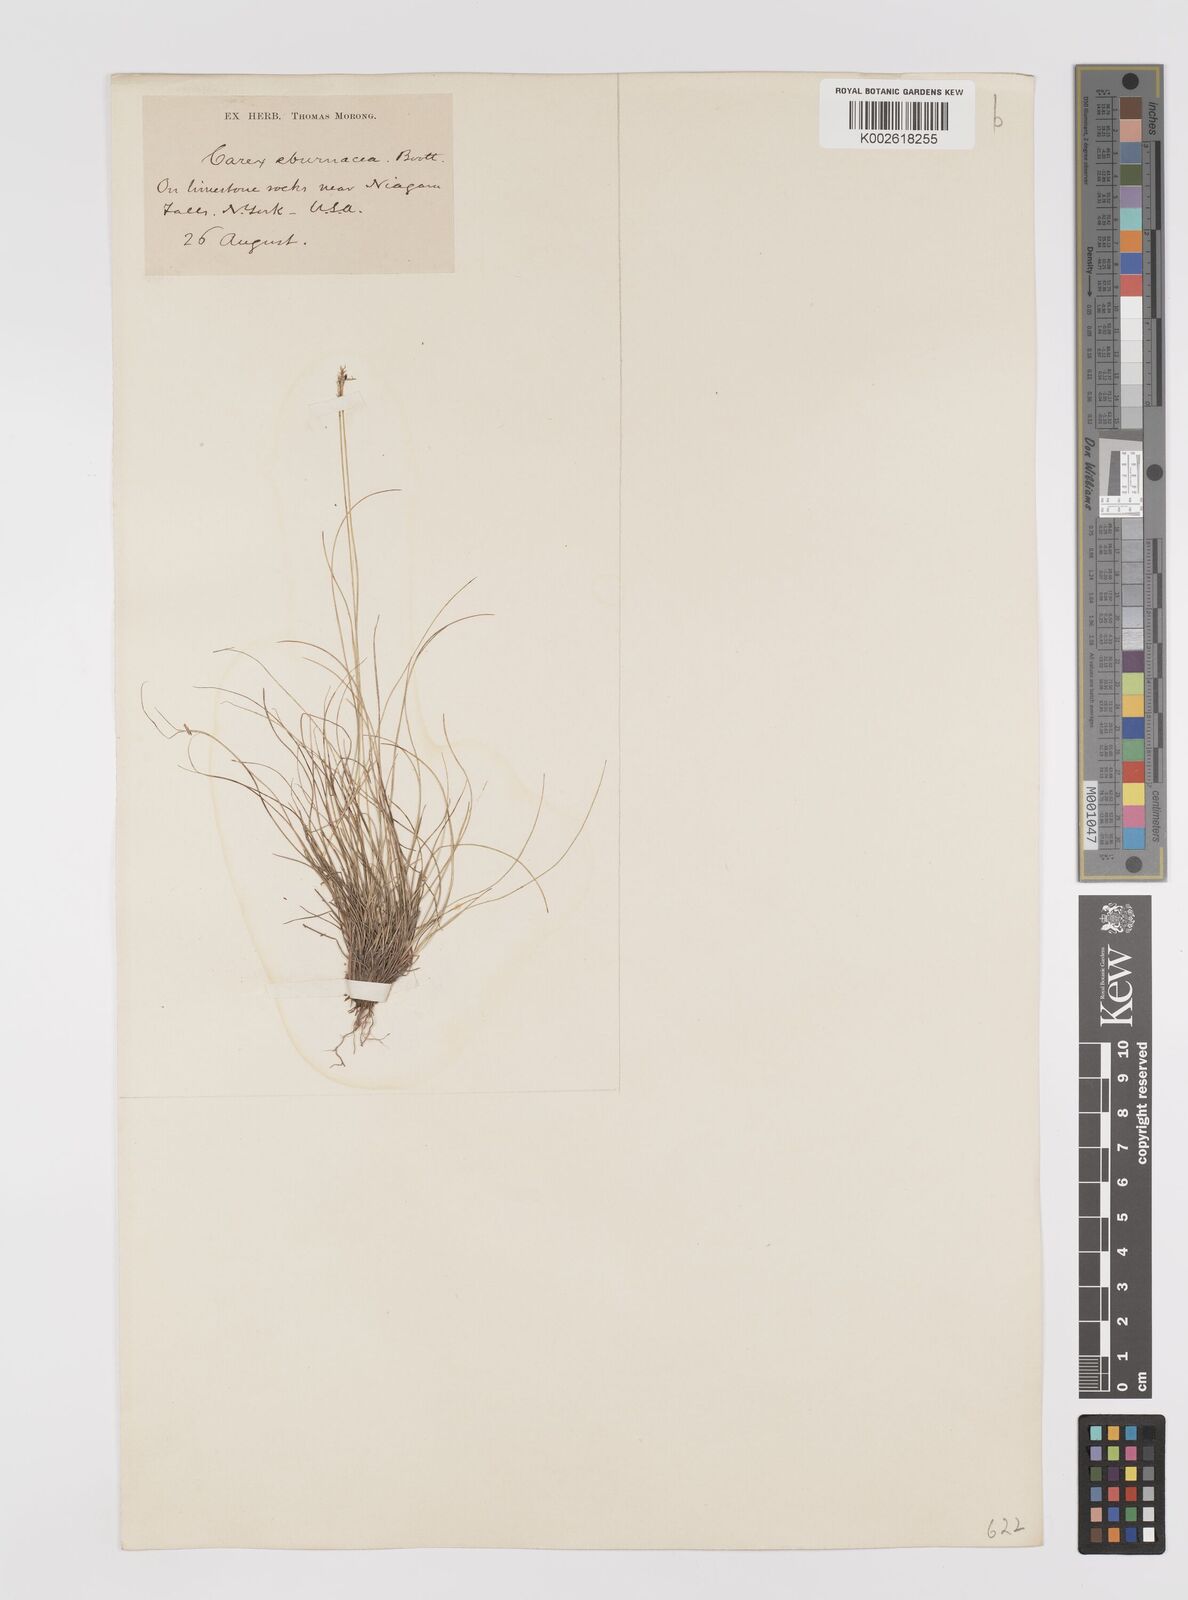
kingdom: Plantae
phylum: Tracheophyta
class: Liliopsida
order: Poales
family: Cyperaceae
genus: Carex
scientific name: Carex eburnea
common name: Bristle-leaved sedge
